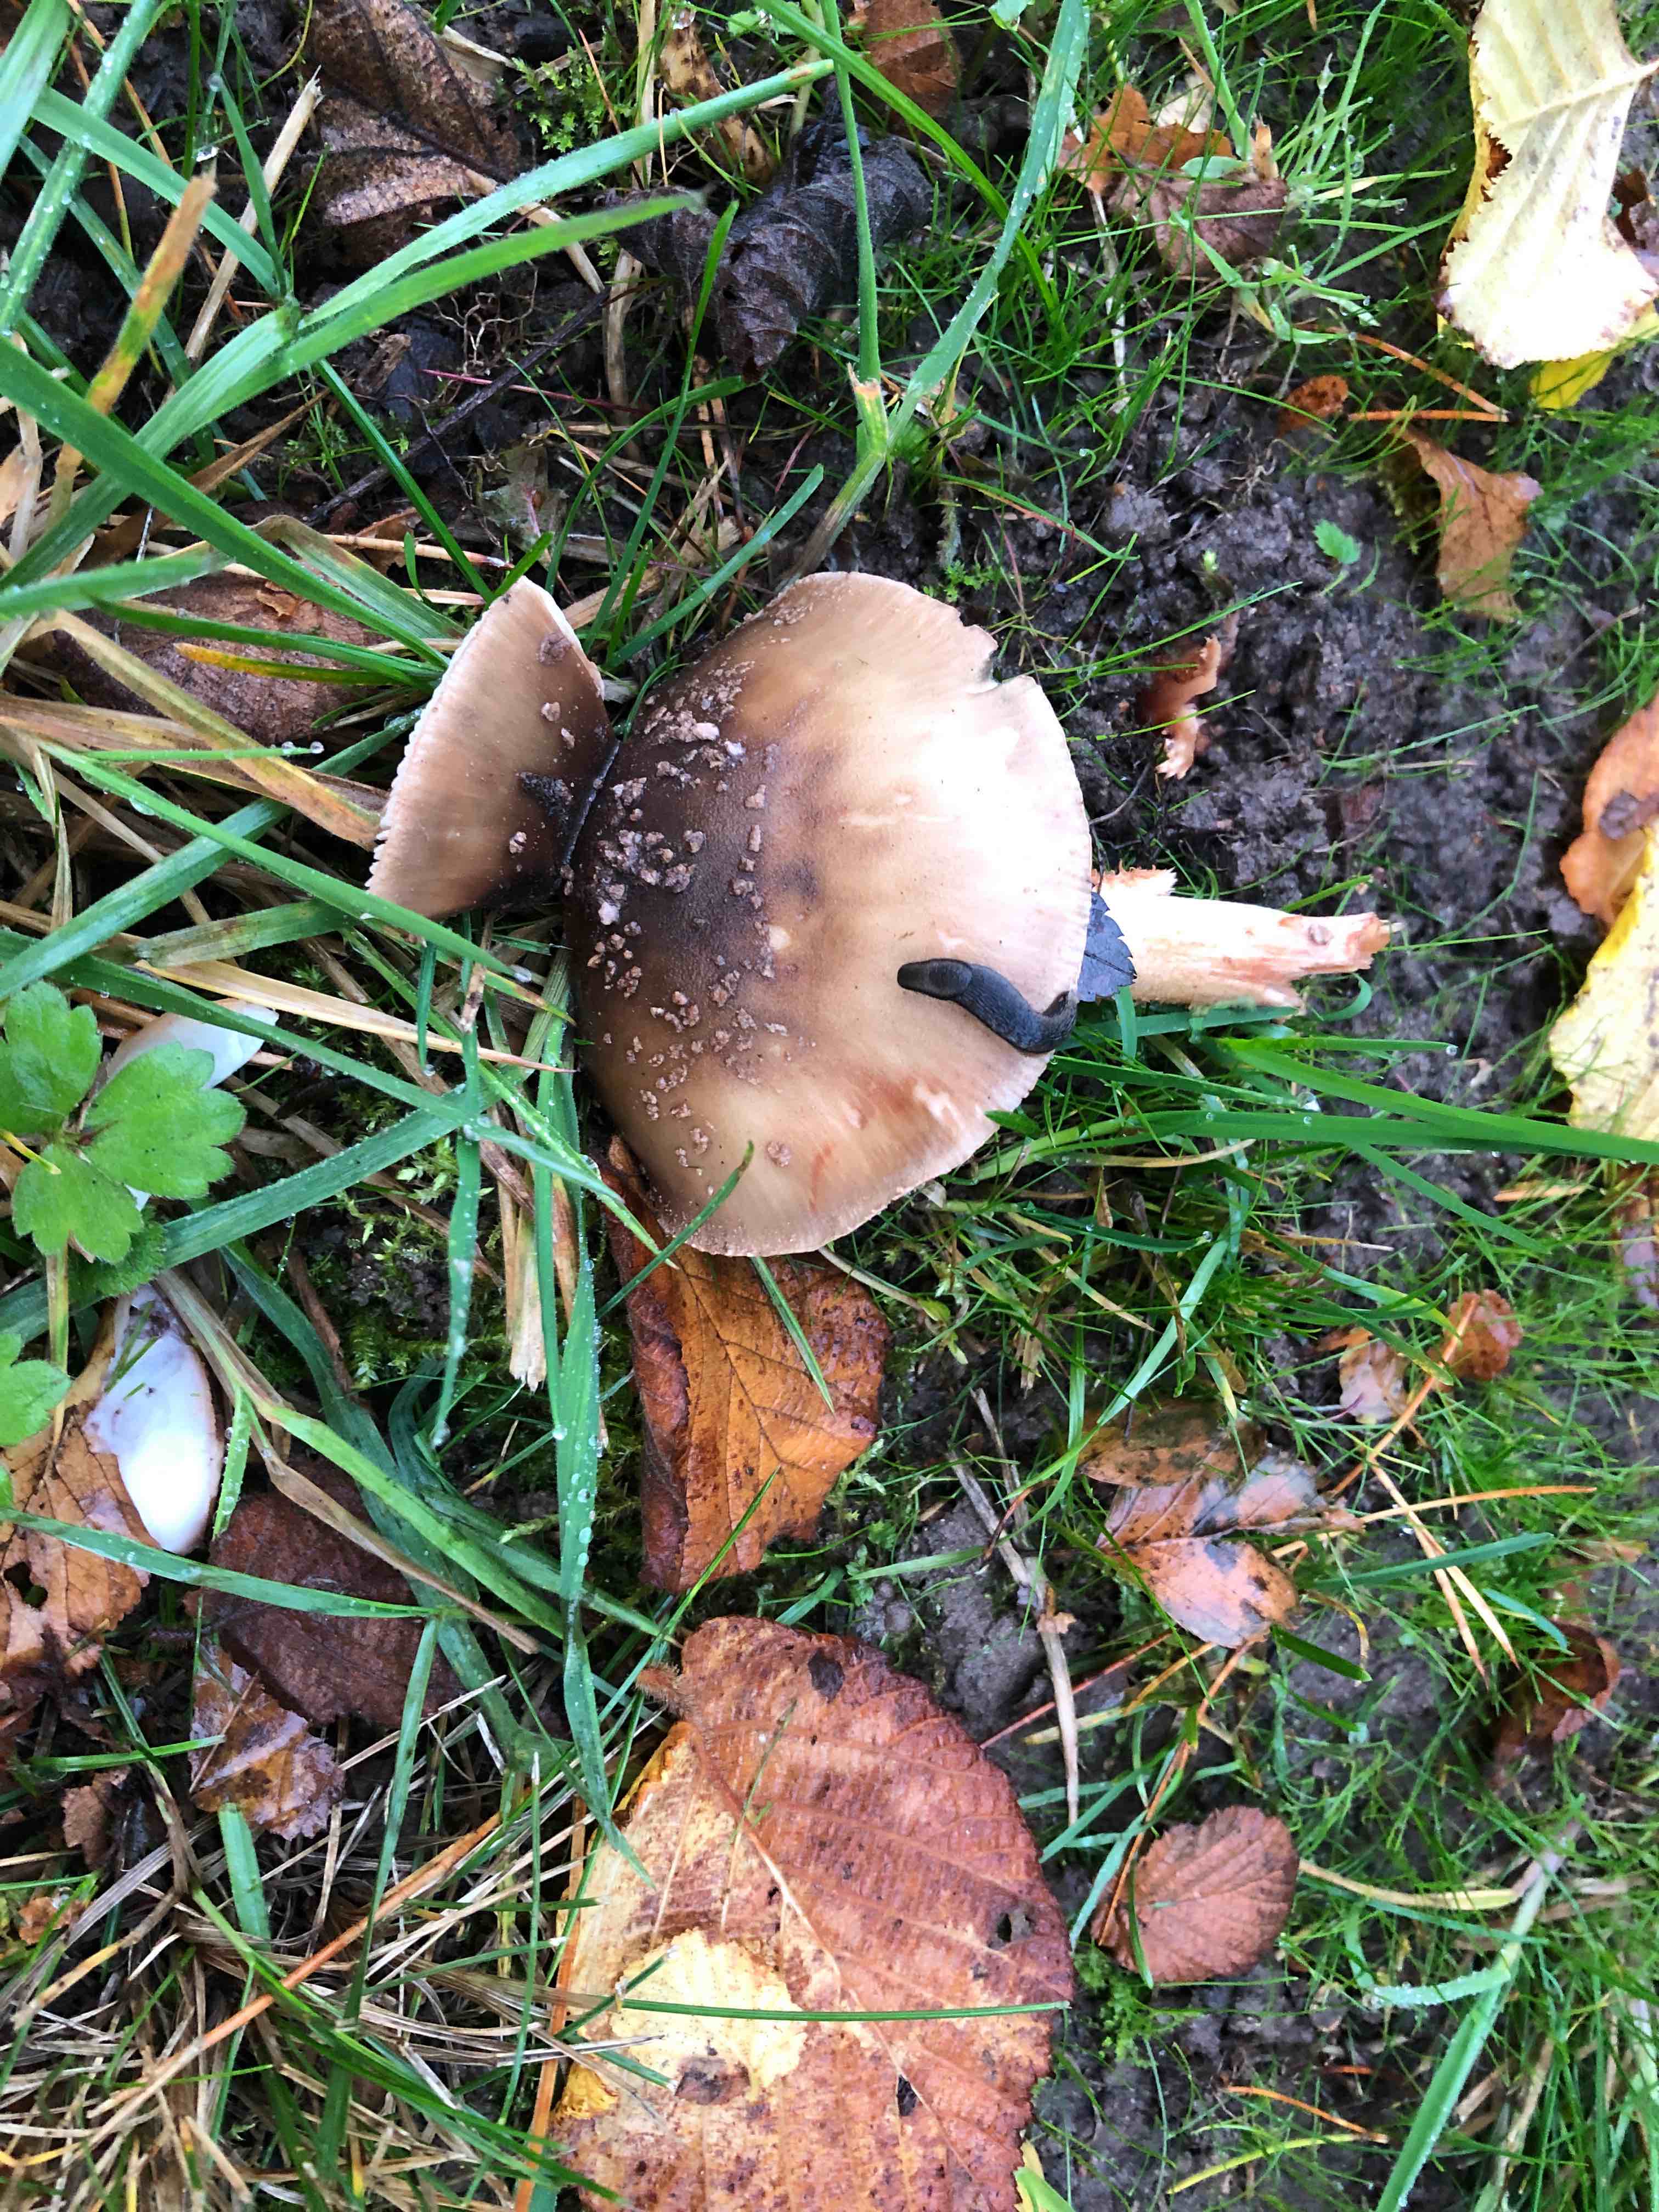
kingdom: Fungi
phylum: Basidiomycota
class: Agaricomycetes
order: Agaricales
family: Amanitaceae
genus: Amanita
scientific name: Amanita rubescens
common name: rødmende fluesvamp
